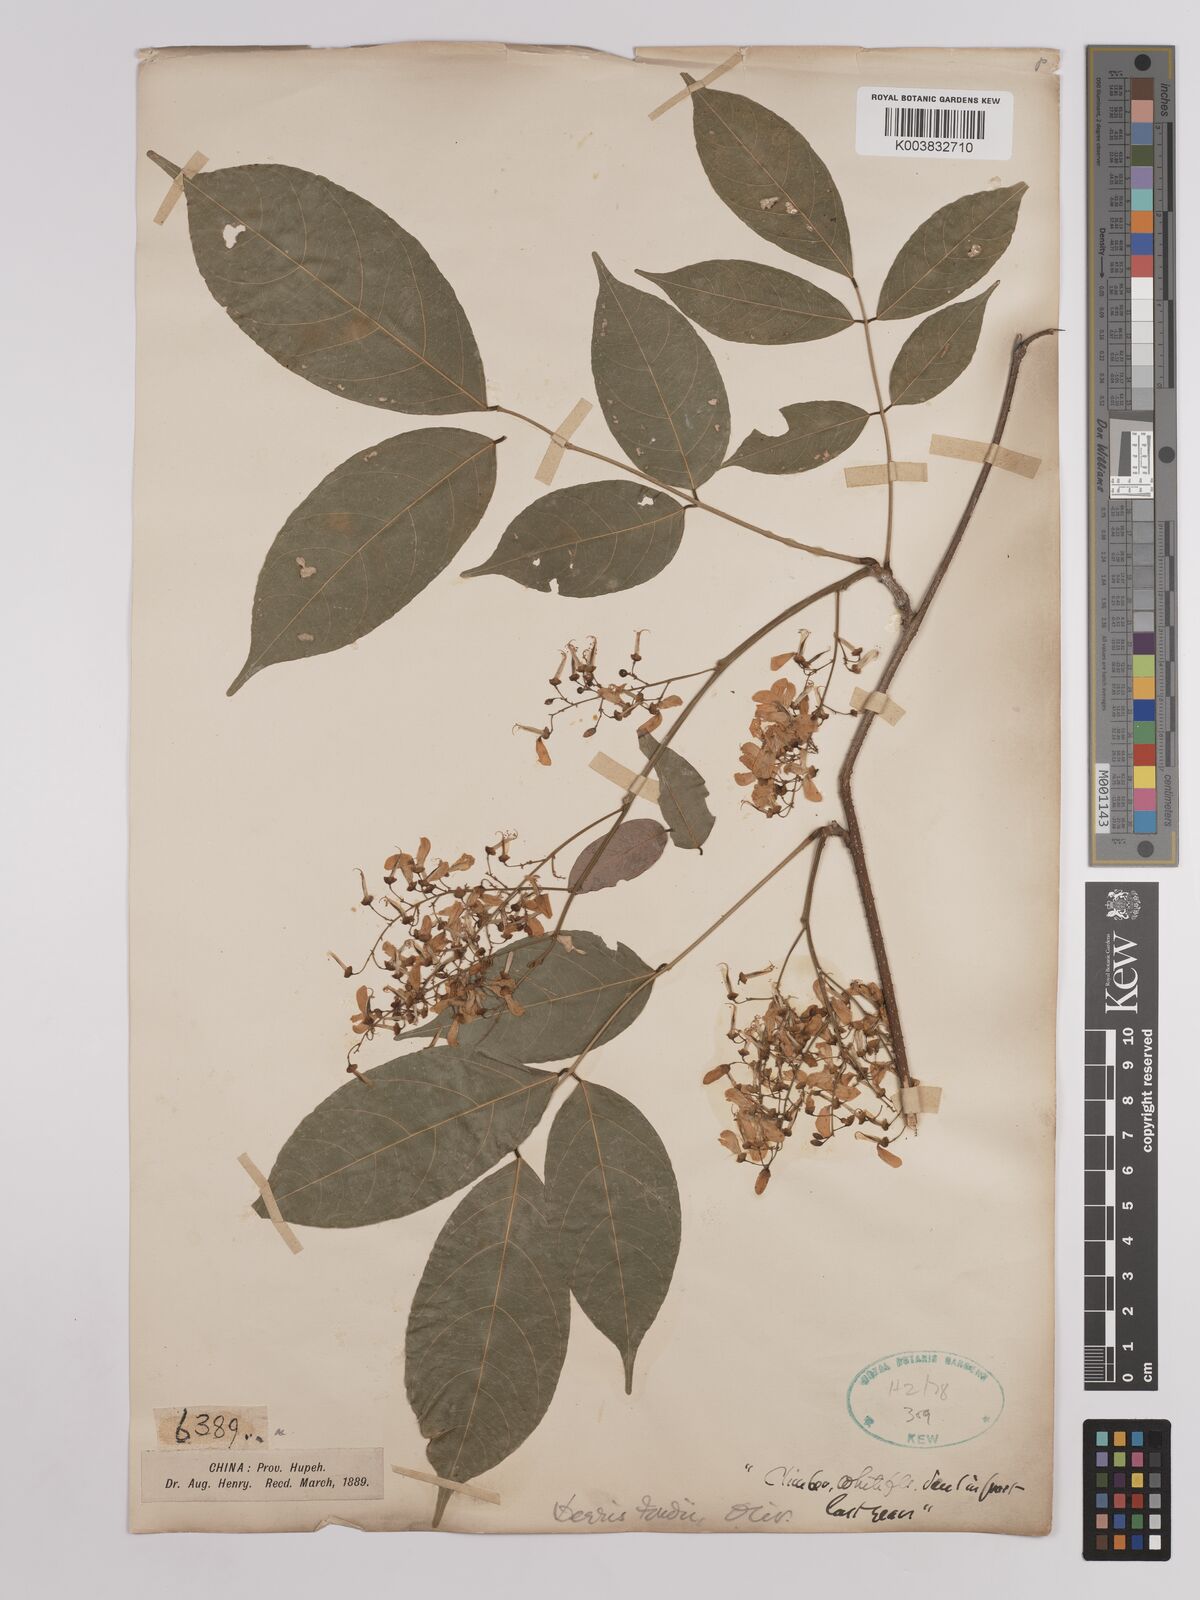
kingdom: Plantae
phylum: Tracheophyta
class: Magnoliopsida
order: Fabales
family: Fabaceae
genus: Derris
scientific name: Derris fordii
